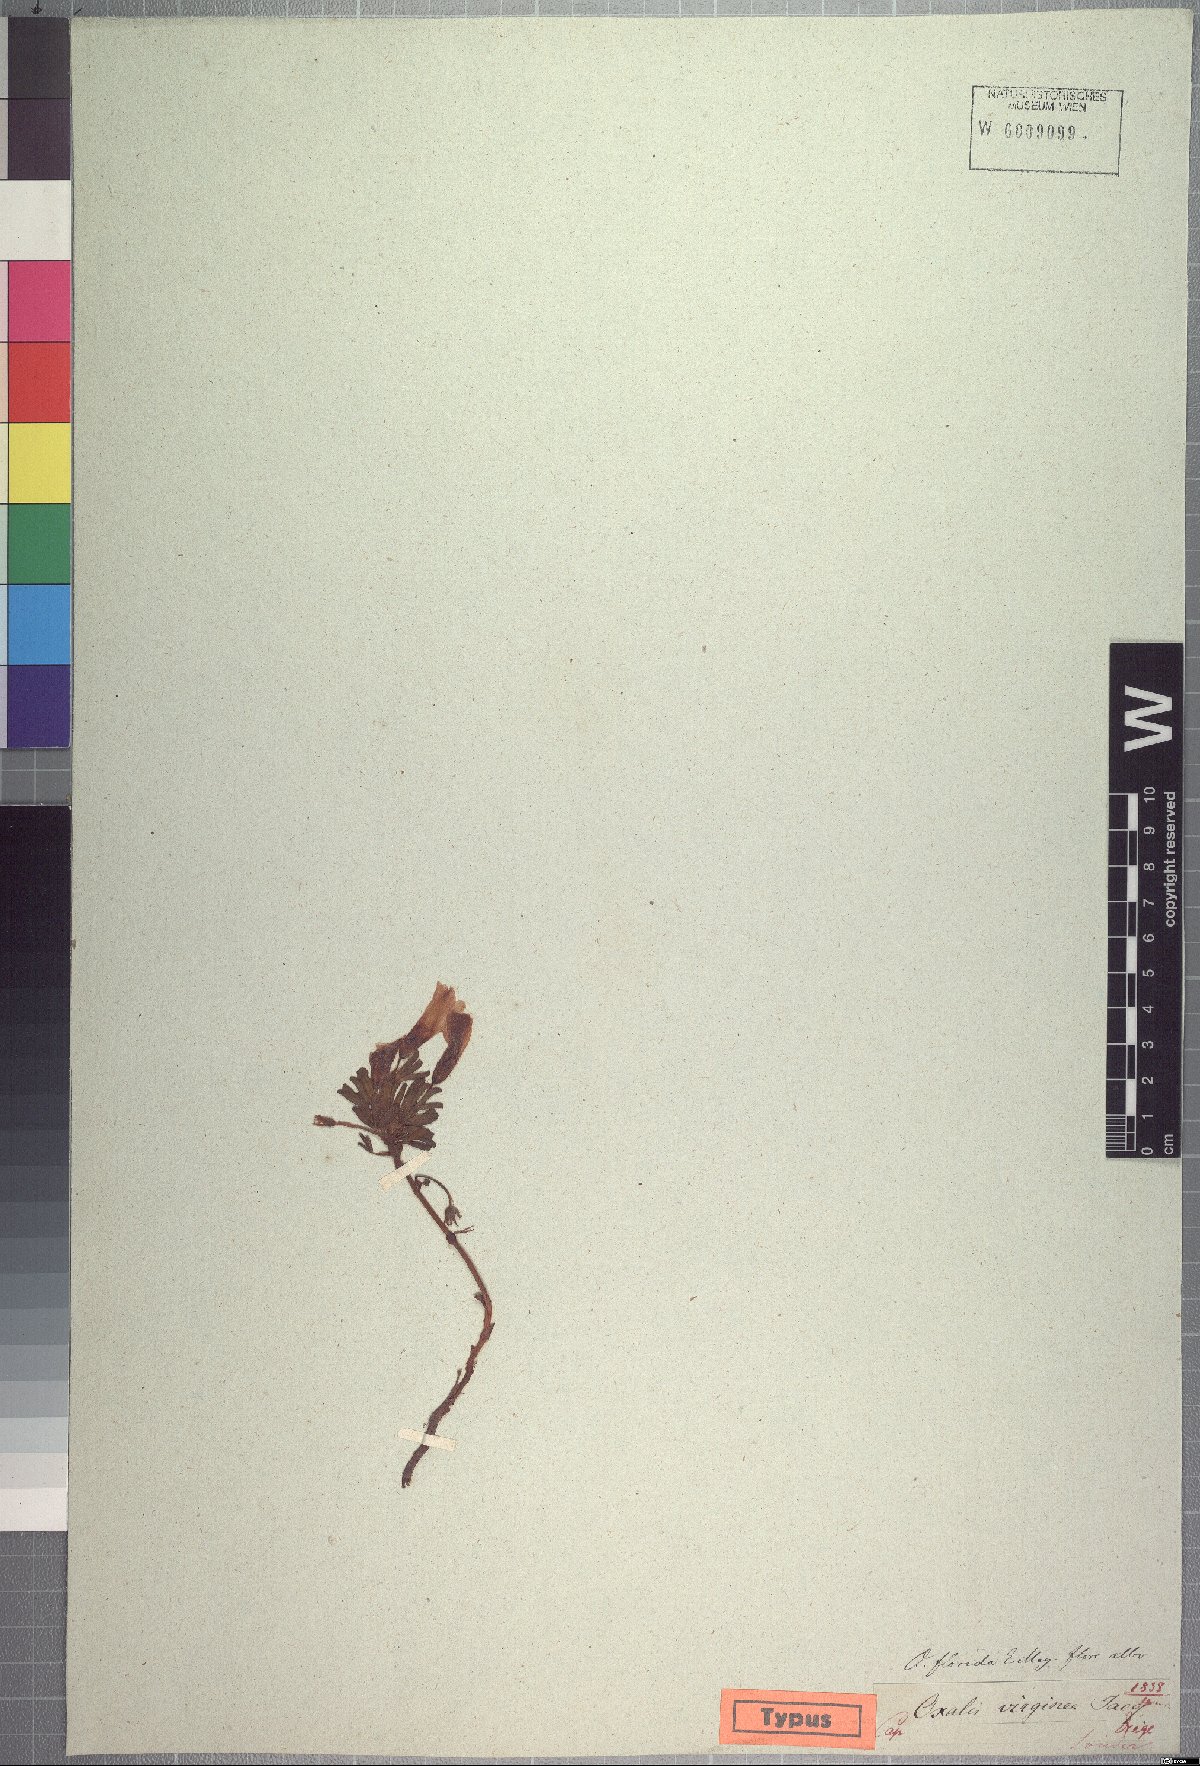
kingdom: Plantae
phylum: Tracheophyta
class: Magnoliopsida
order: Oxalidales
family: Oxalidaceae
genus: Oxalis
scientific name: Oxalis adspersa
